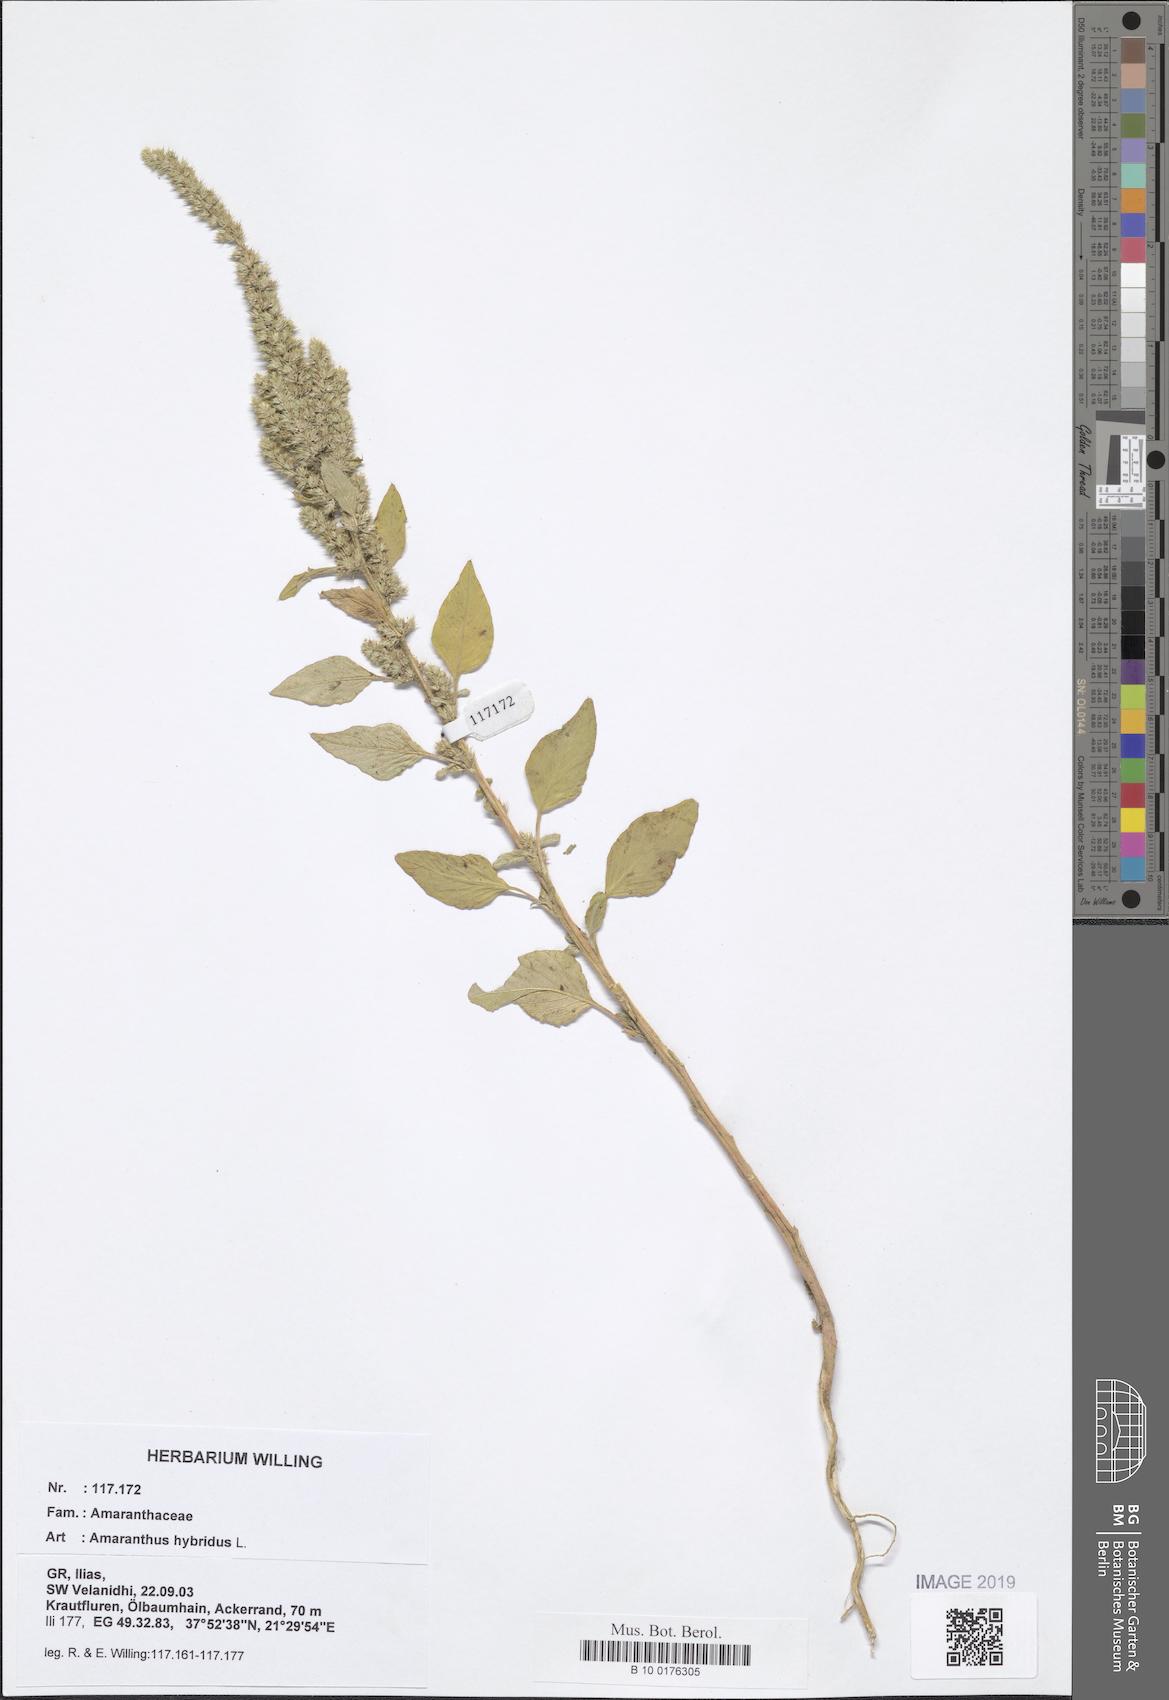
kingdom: Plantae
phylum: Tracheophyta
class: Magnoliopsida
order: Caryophyllales
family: Amaranthaceae
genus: Amaranthus
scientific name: Amaranthus hybridus
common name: Green amaranth
